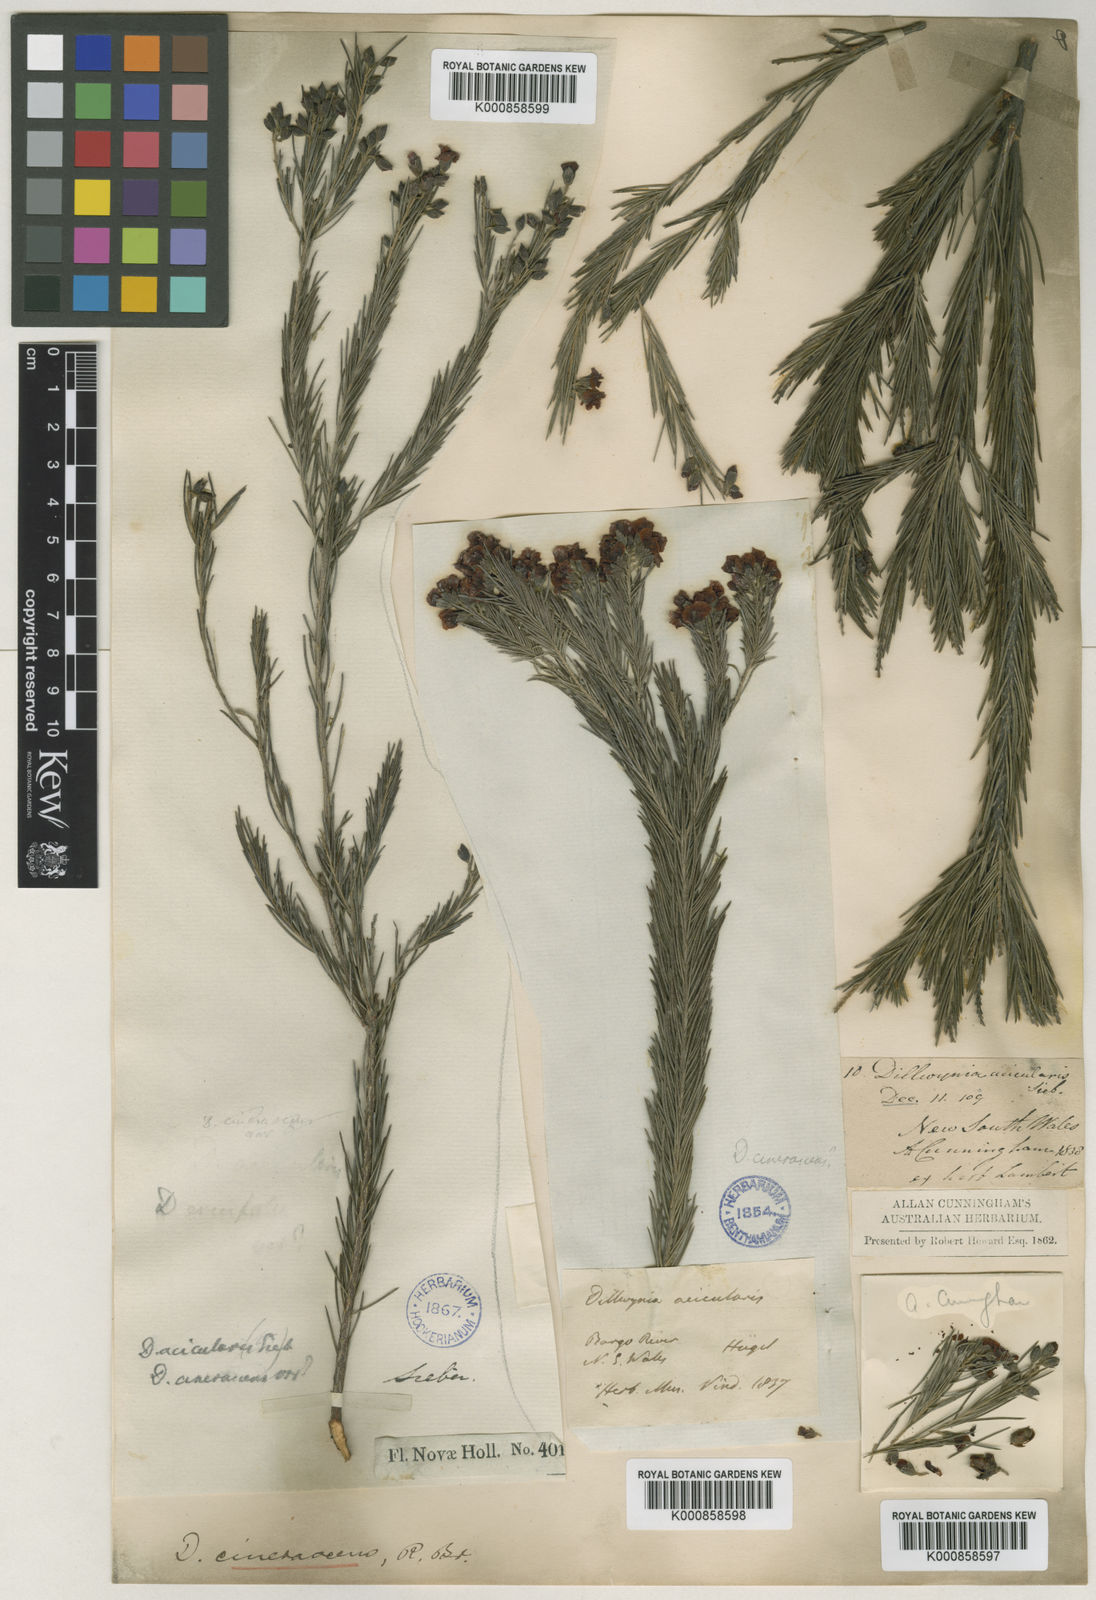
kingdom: Plantae
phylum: Tracheophyta
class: Magnoliopsida
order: Fabales
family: Fabaceae
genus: Dillwynia
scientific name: Dillwynia acicularis
